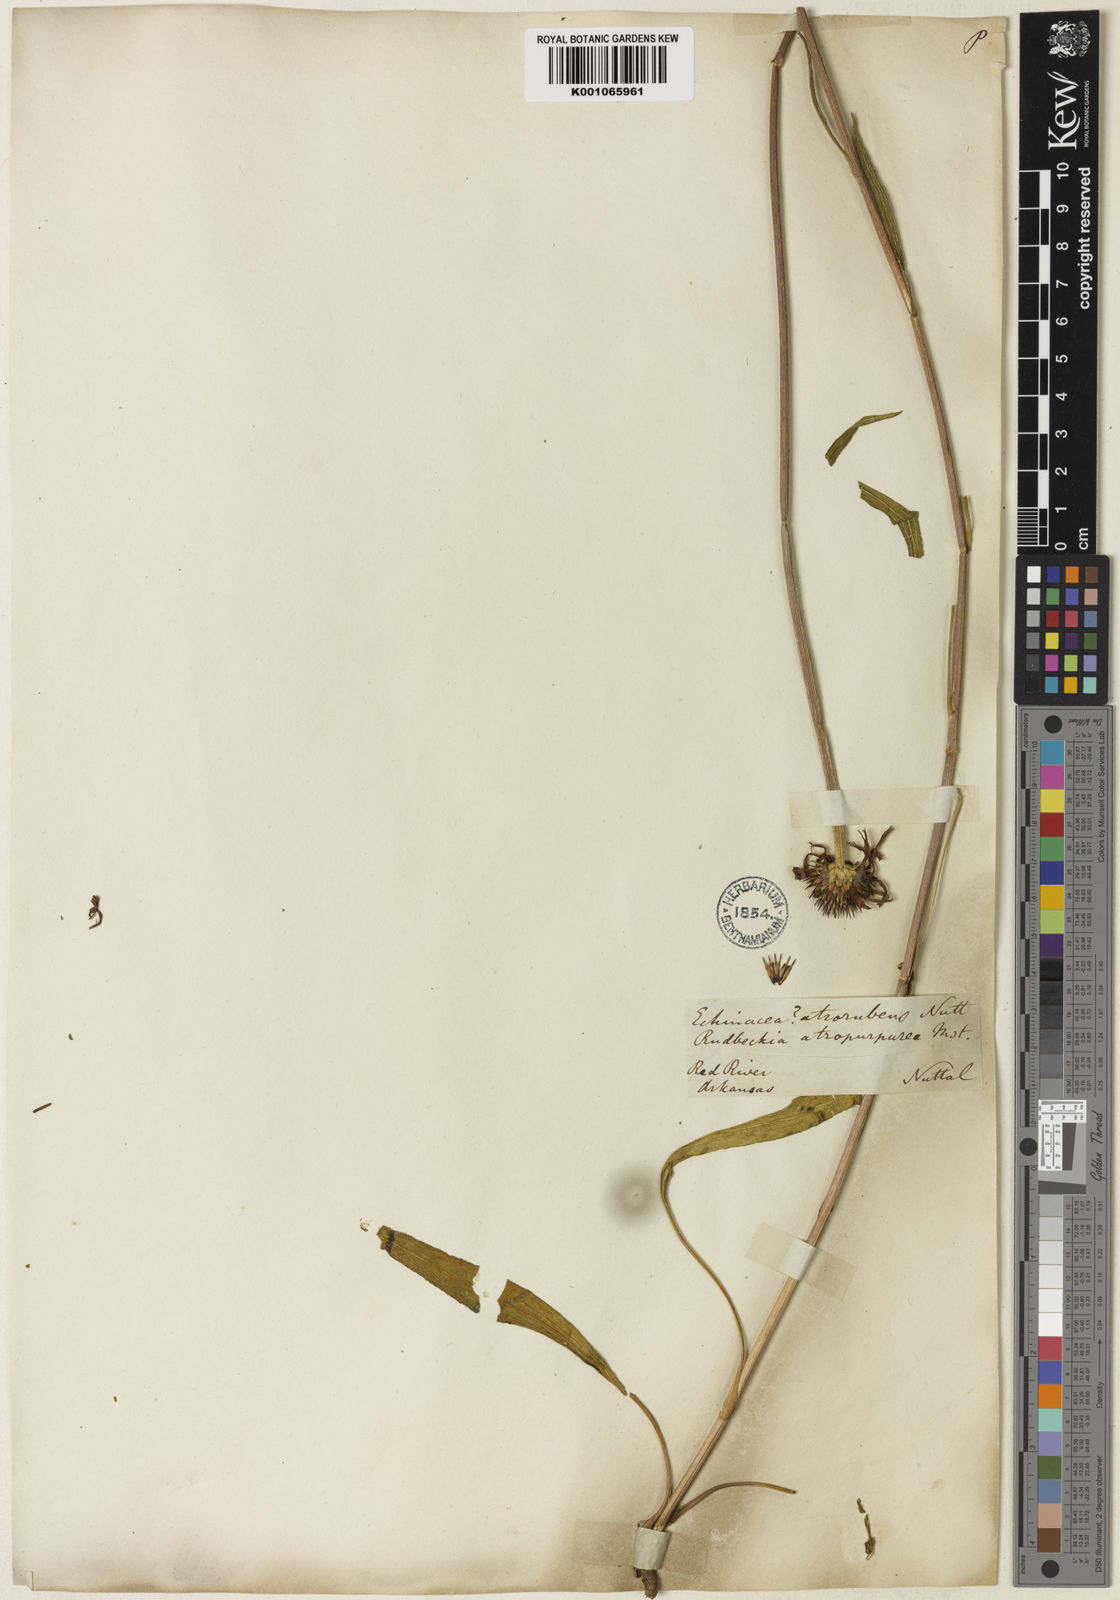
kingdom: Plantae
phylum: Tracheophyta
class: Magnoliopsida
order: Asterales
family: Asteraceae
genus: Echinacea
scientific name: Echinacea atrorubens
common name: Topeka purple-coneflower
